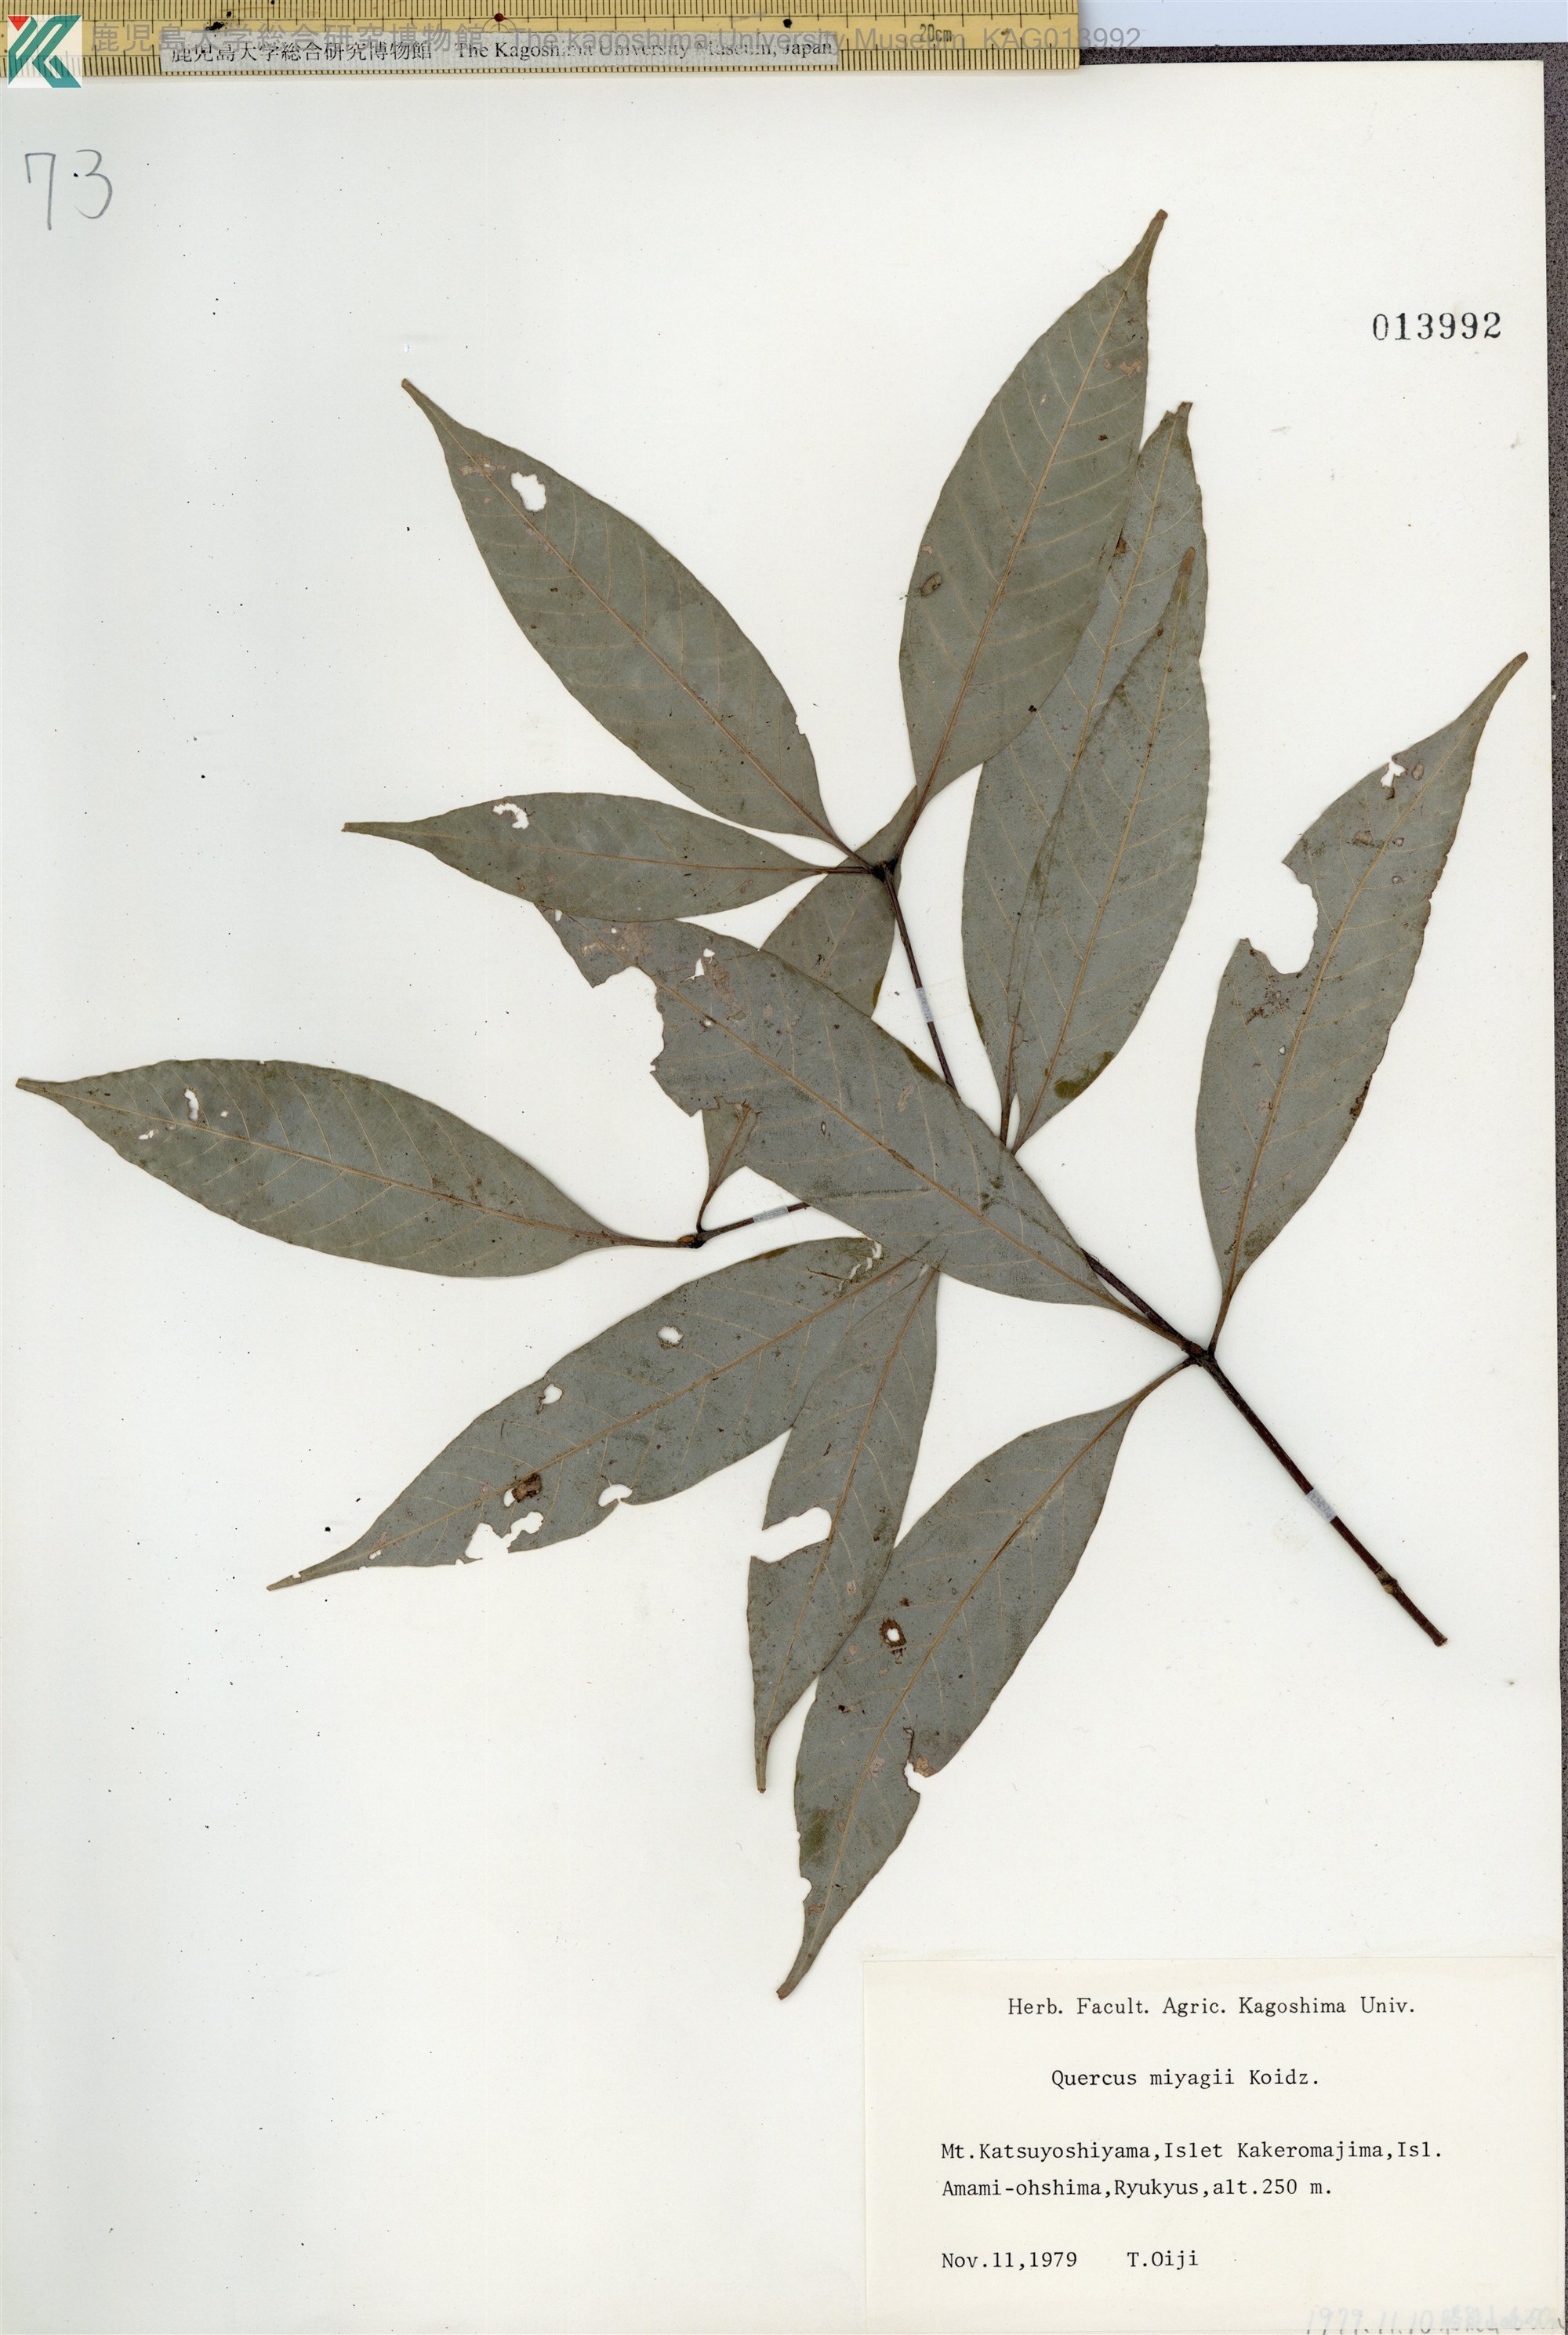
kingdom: Plantae
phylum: Tracheophyta
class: Magnoliopsida
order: Fagales
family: Fagaceae
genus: Quercus
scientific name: Quercus miyagii
